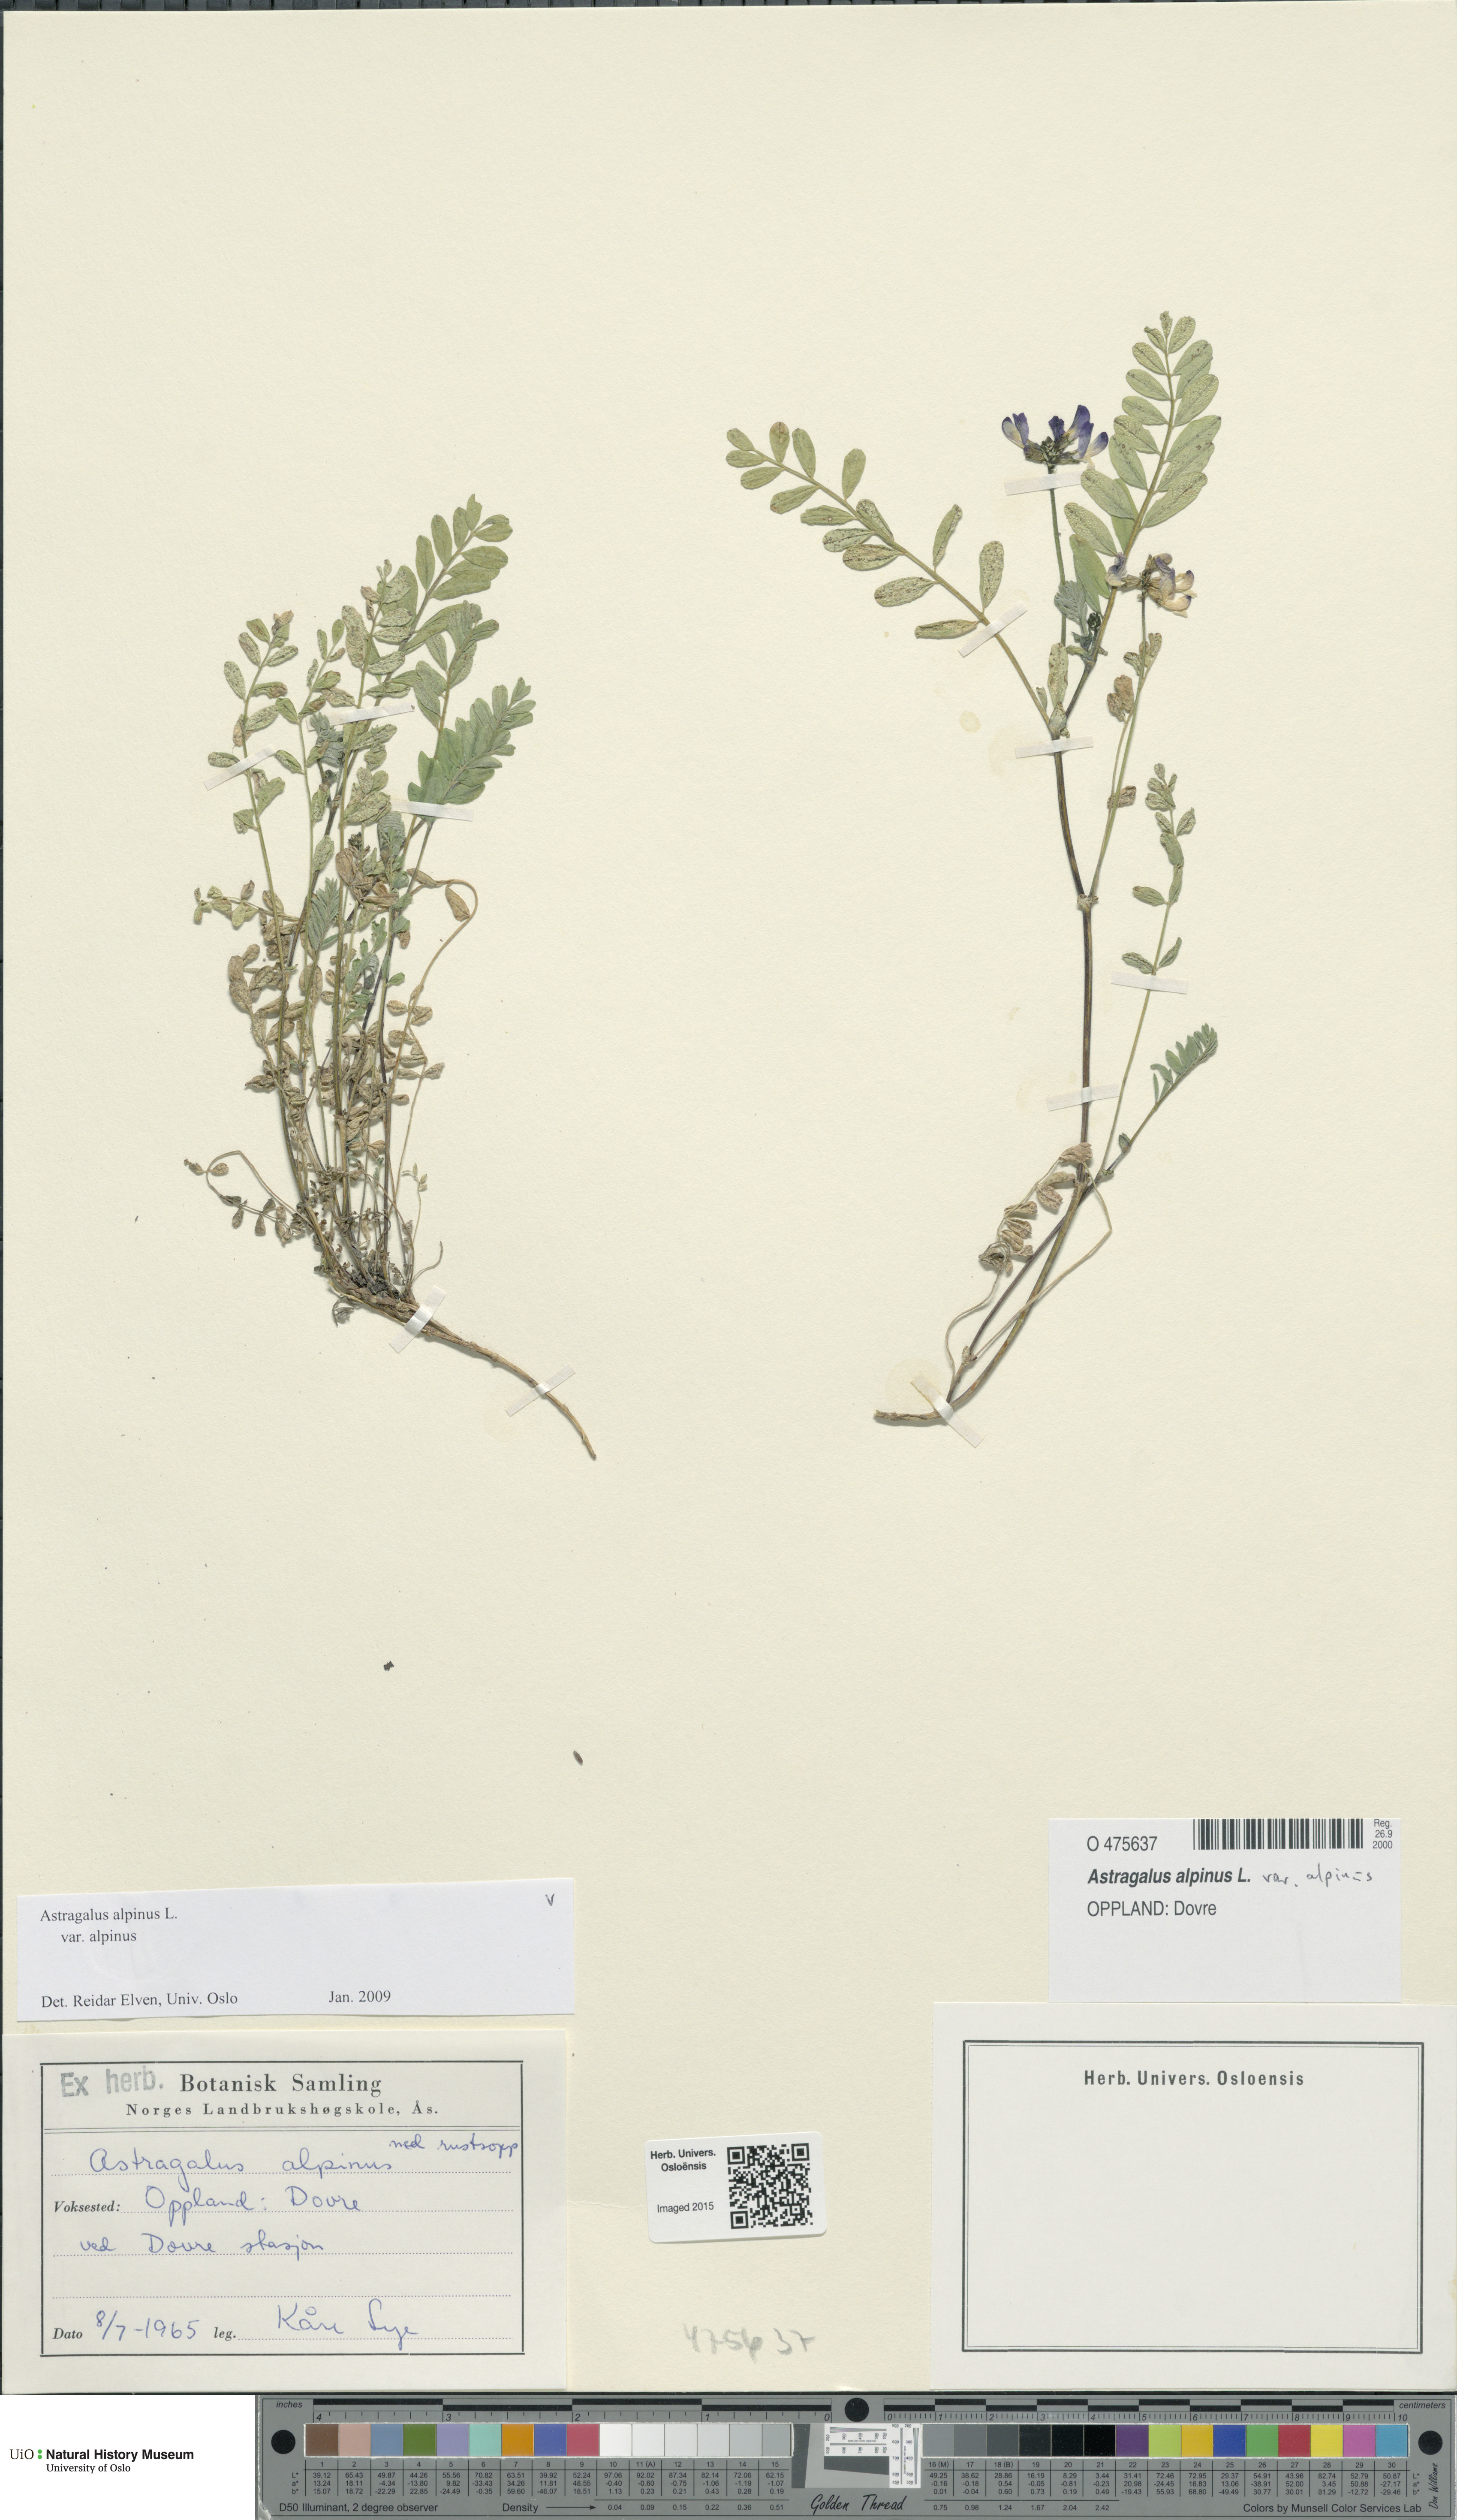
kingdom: Plantae
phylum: Tracheophyta
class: Magnoliopsida
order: Fabales
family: Fabaceae
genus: Astragalus
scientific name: Astragalus alpinus
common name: Alpine milk-vetch
